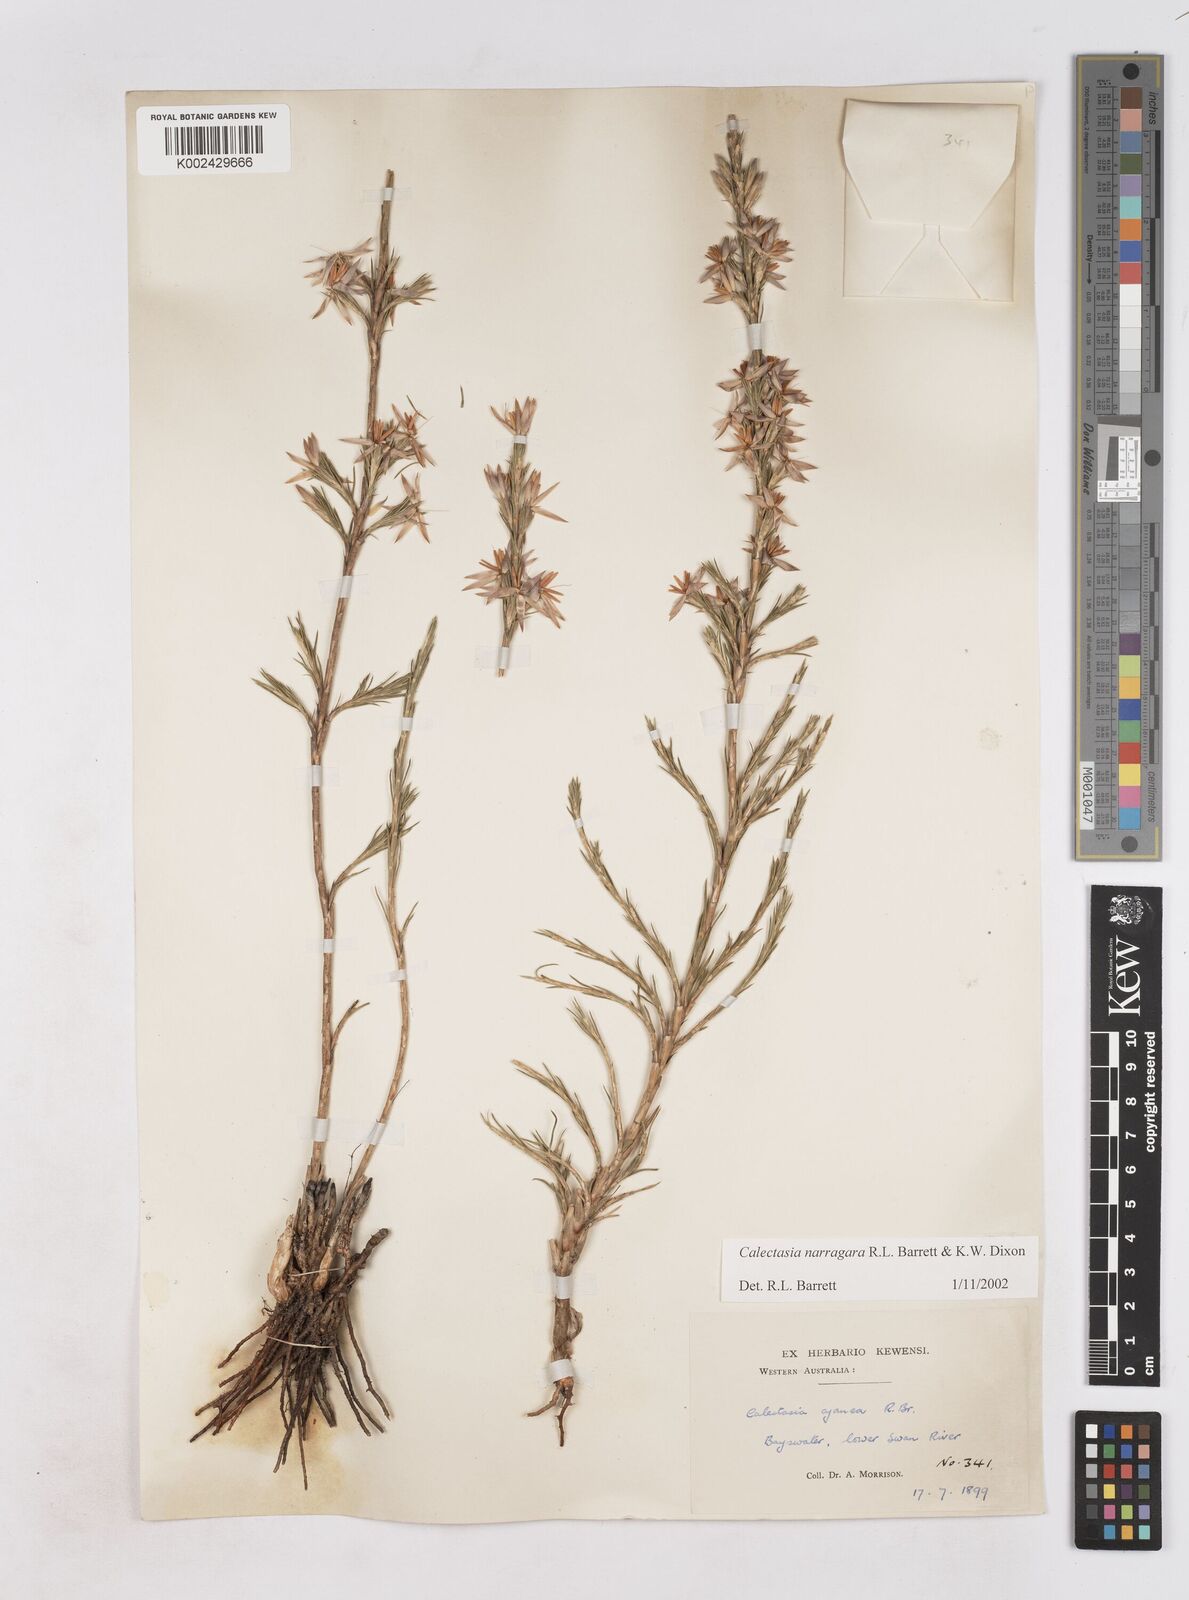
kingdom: Plantae
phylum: Tracheophyta
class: Liliopsida
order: Arecales
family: Dasypogonaceae
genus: Calectasia
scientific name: Calectasia narragara
